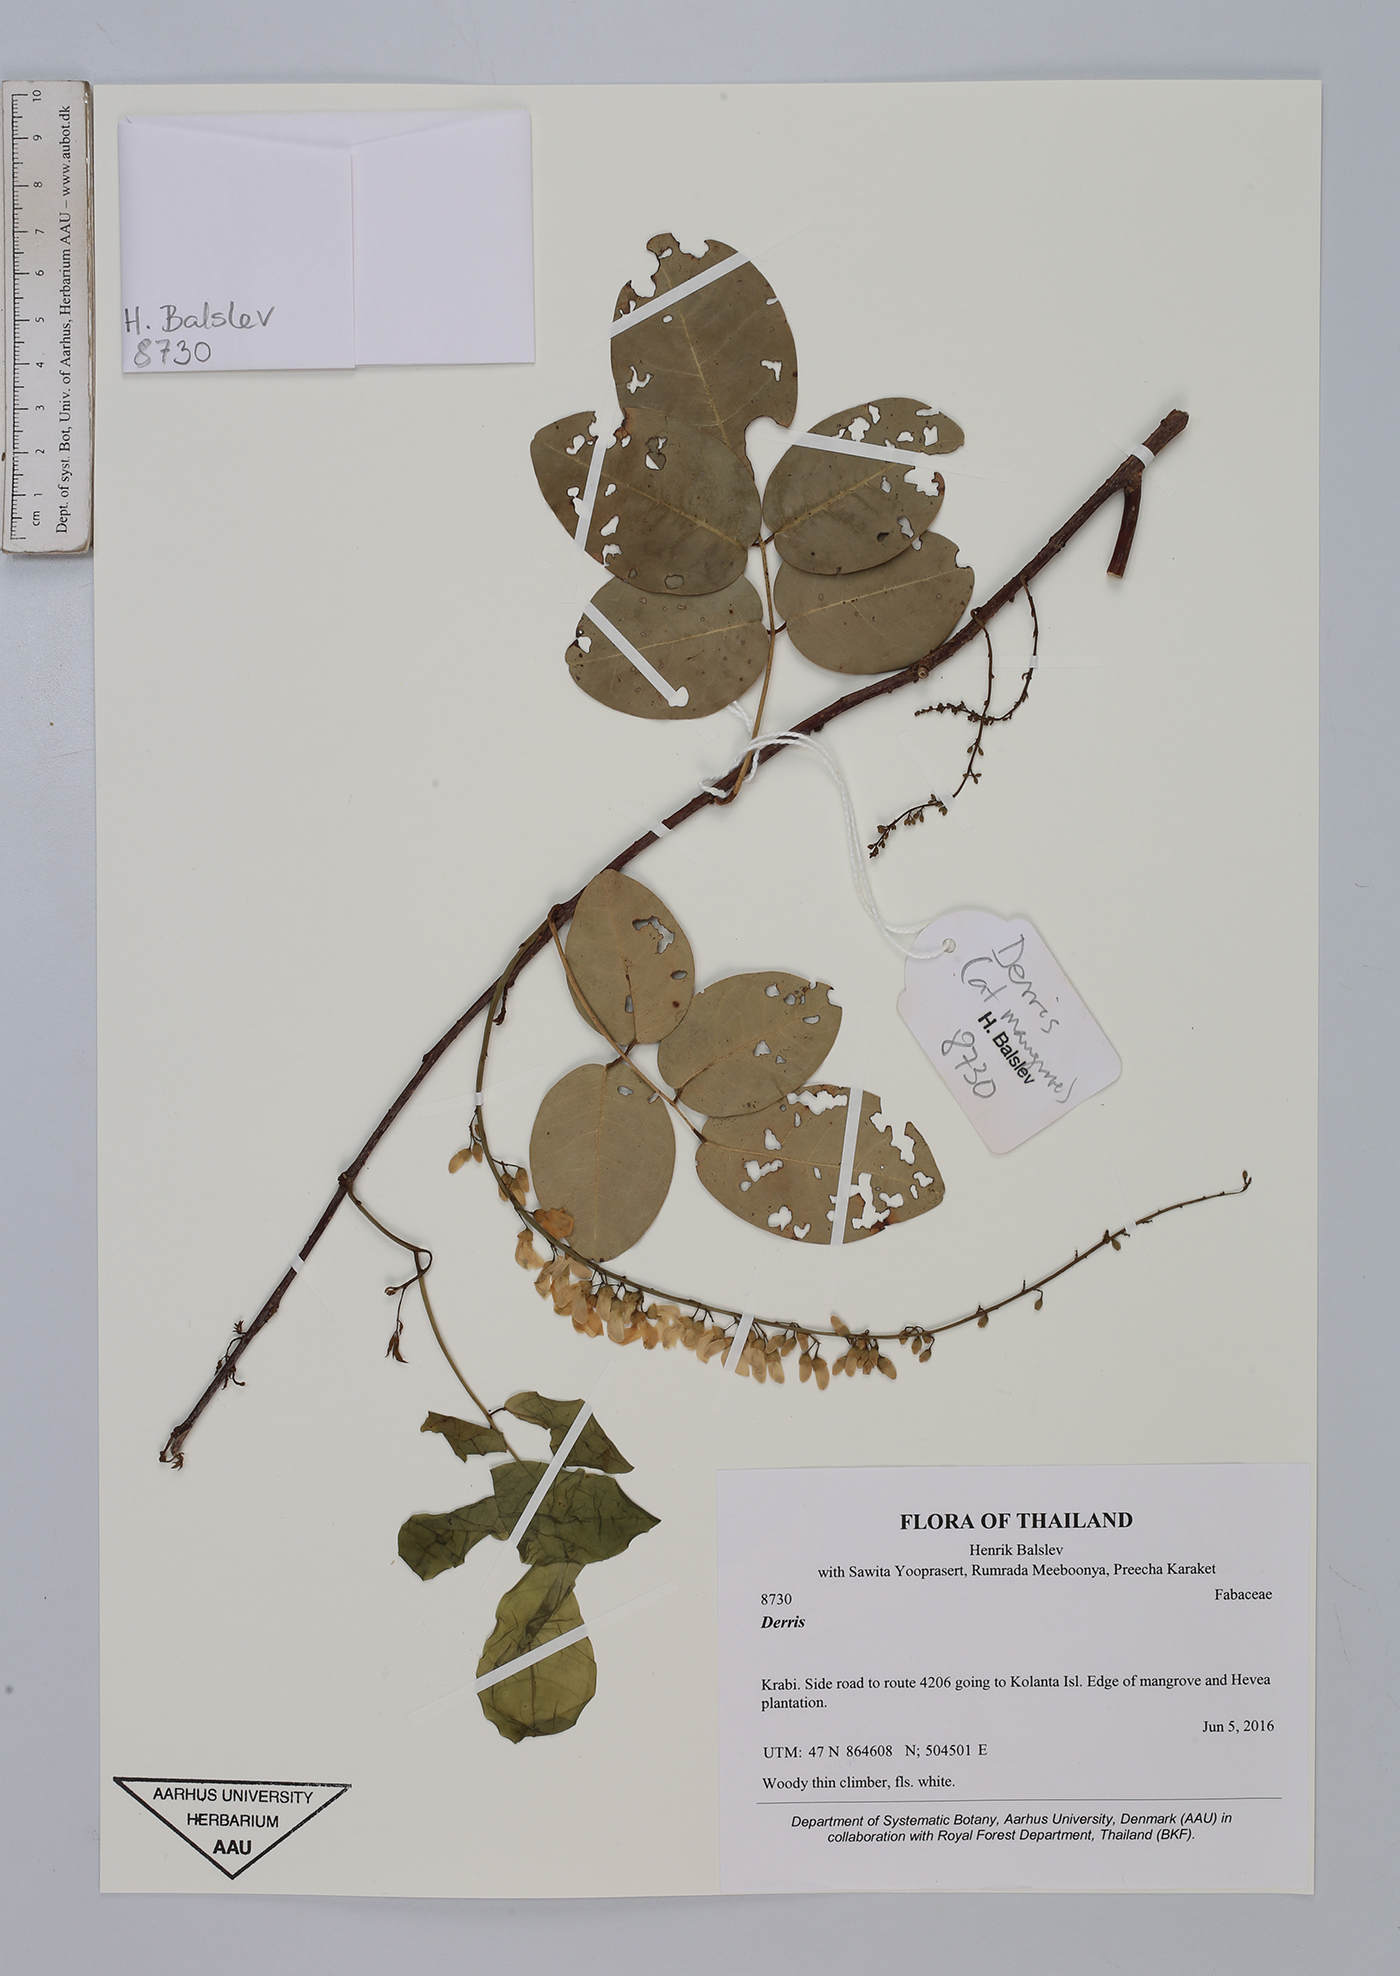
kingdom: Plantae
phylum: Tracheophyta
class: Magnoliopsida
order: Fabales
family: Fabaceae
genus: Derris
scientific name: Derris
